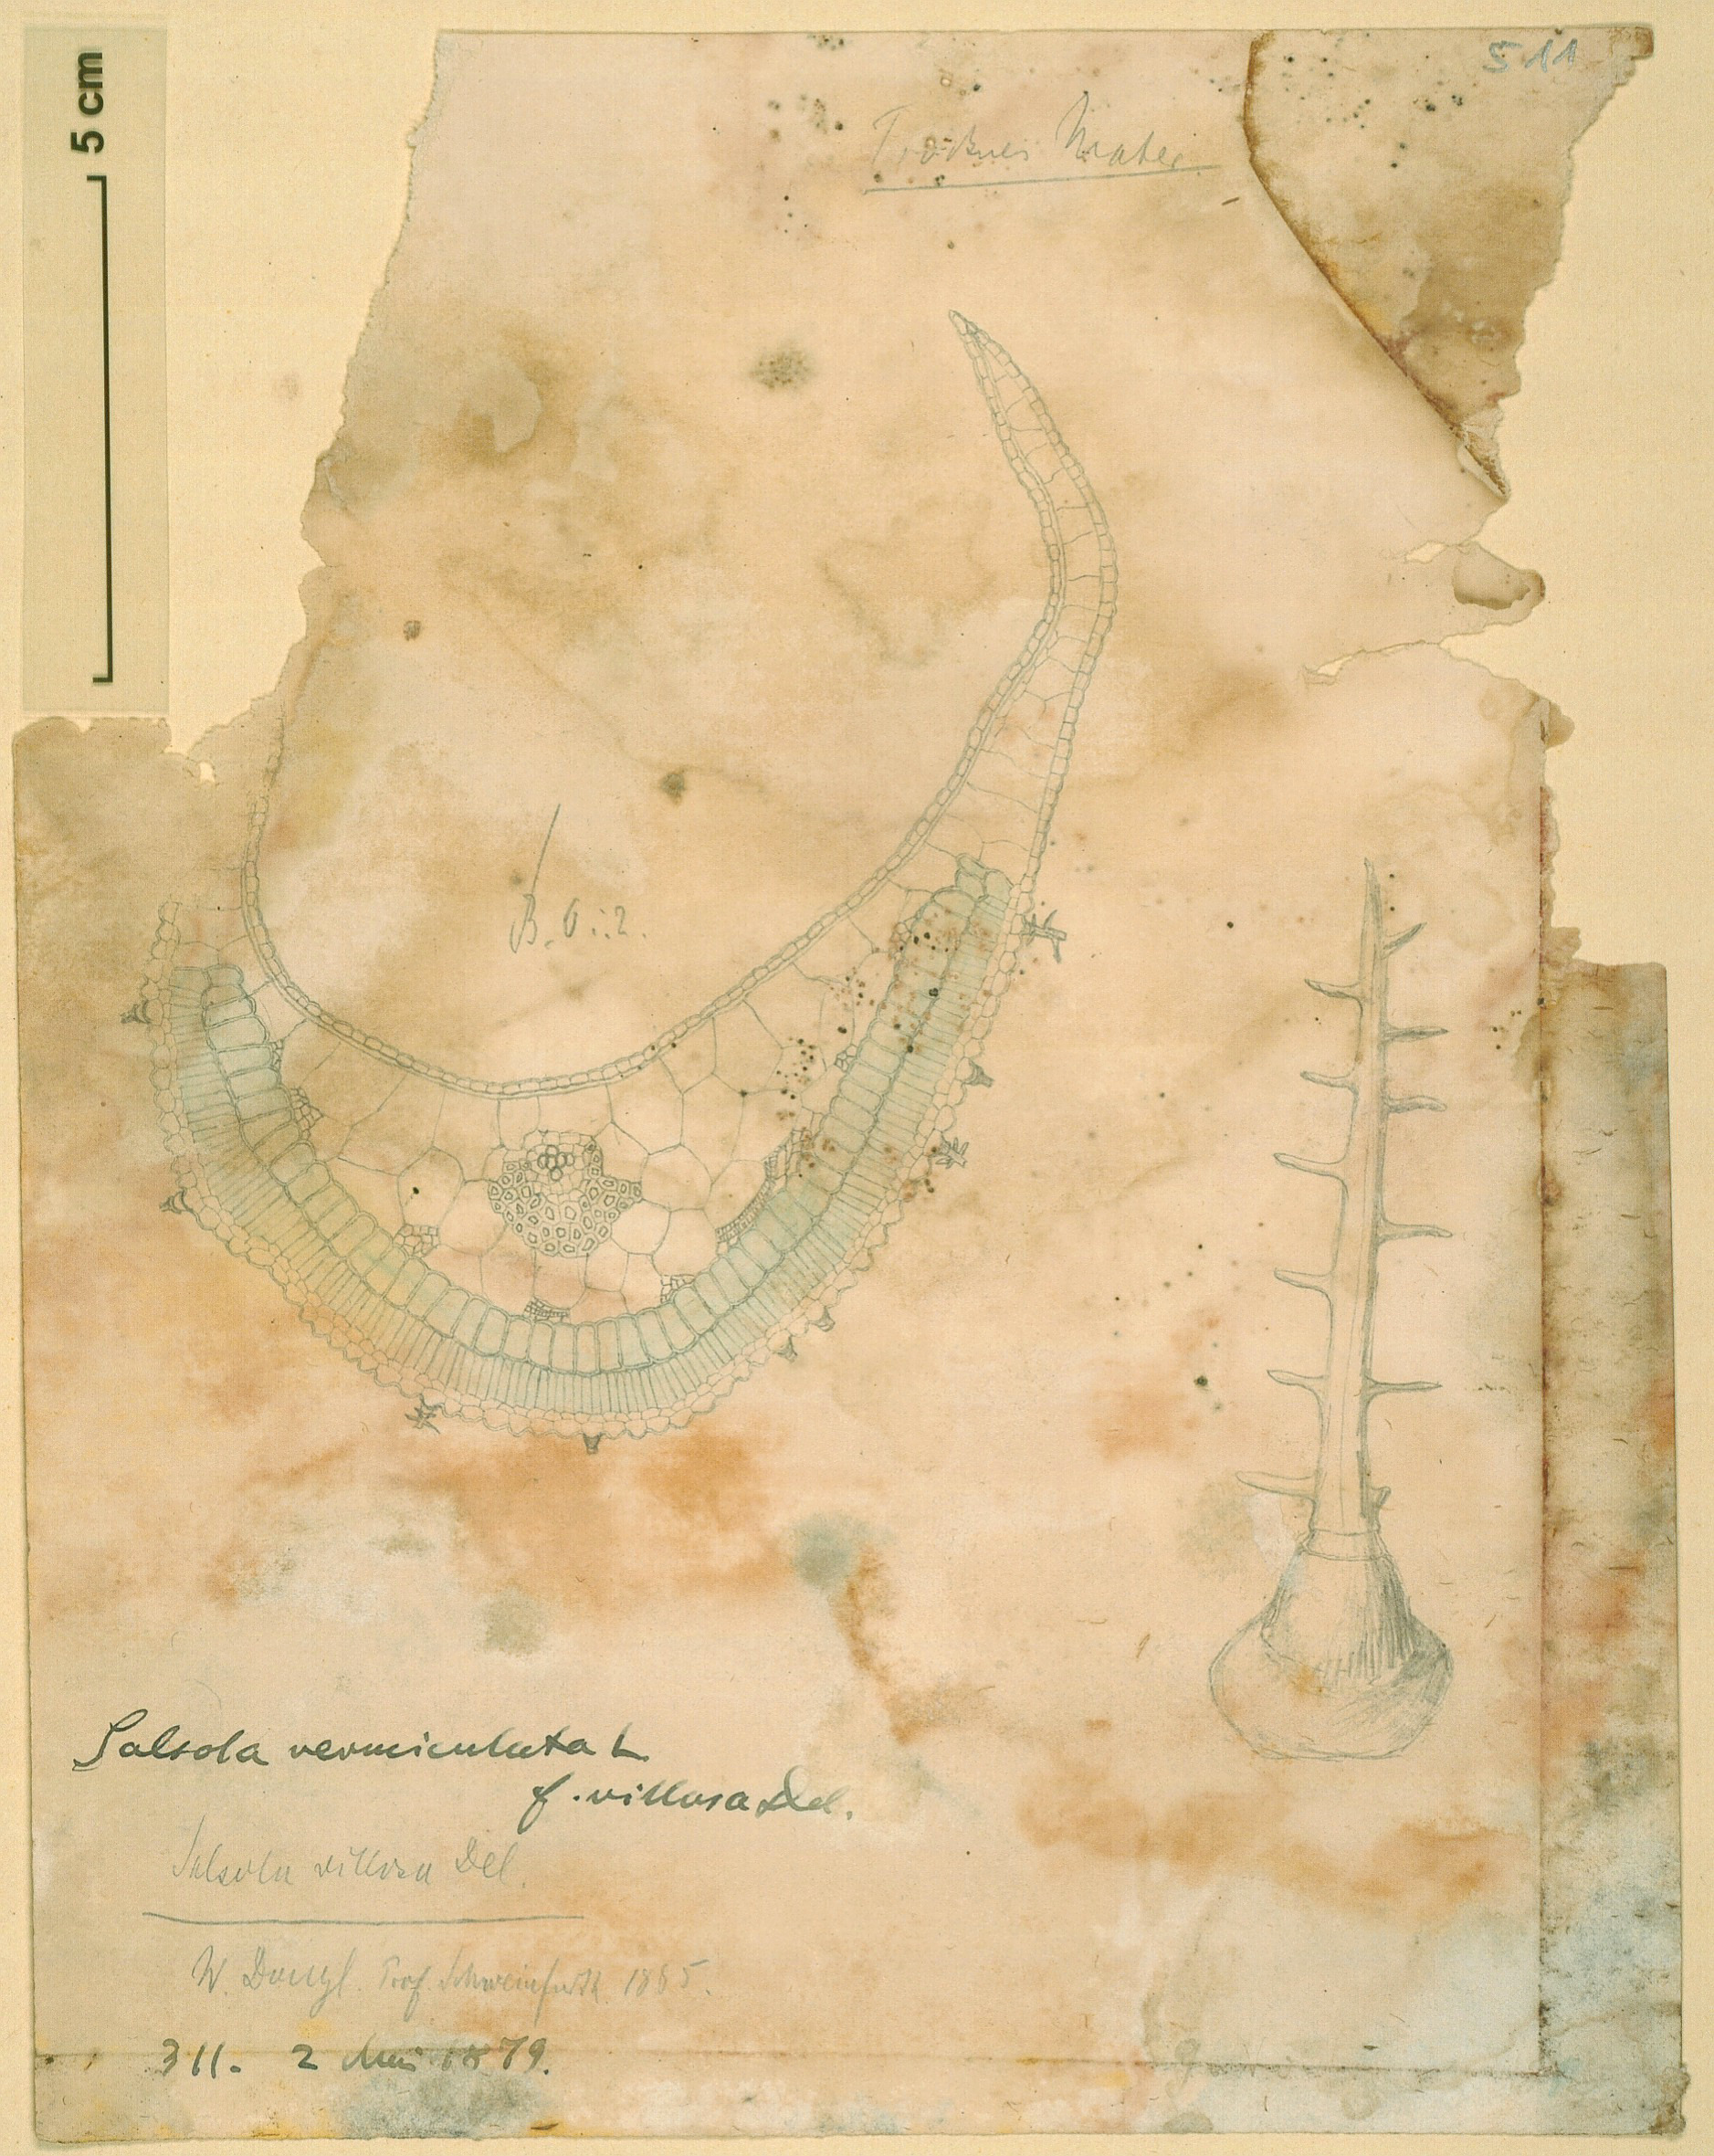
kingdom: Plantae
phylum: Tracheophyta
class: Magnoliopsida
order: Caryophyllales
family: Amaranthaceae
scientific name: Amaranthaceae
